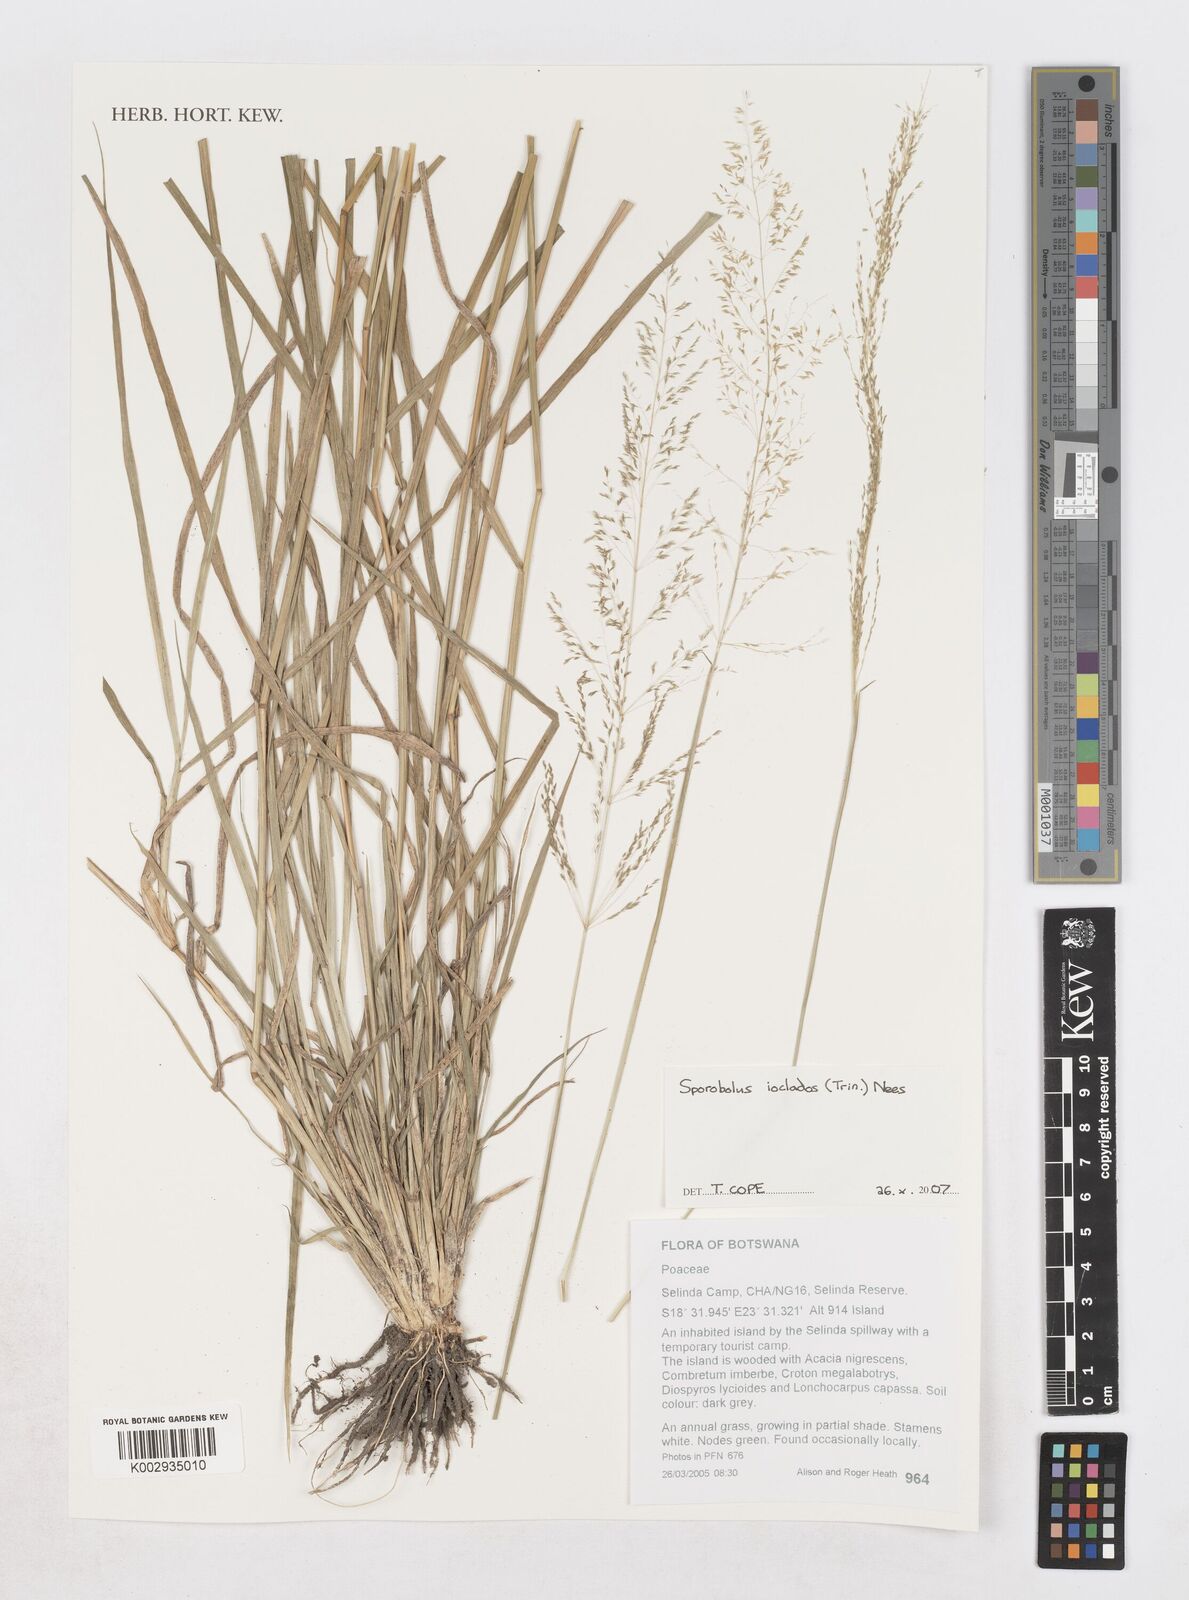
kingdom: Plantae
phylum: Tracheophyta
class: Liliopsida
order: Poales
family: Poaceae
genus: Sporobolus
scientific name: Sporobolus ioclados
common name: Pan dropseed
